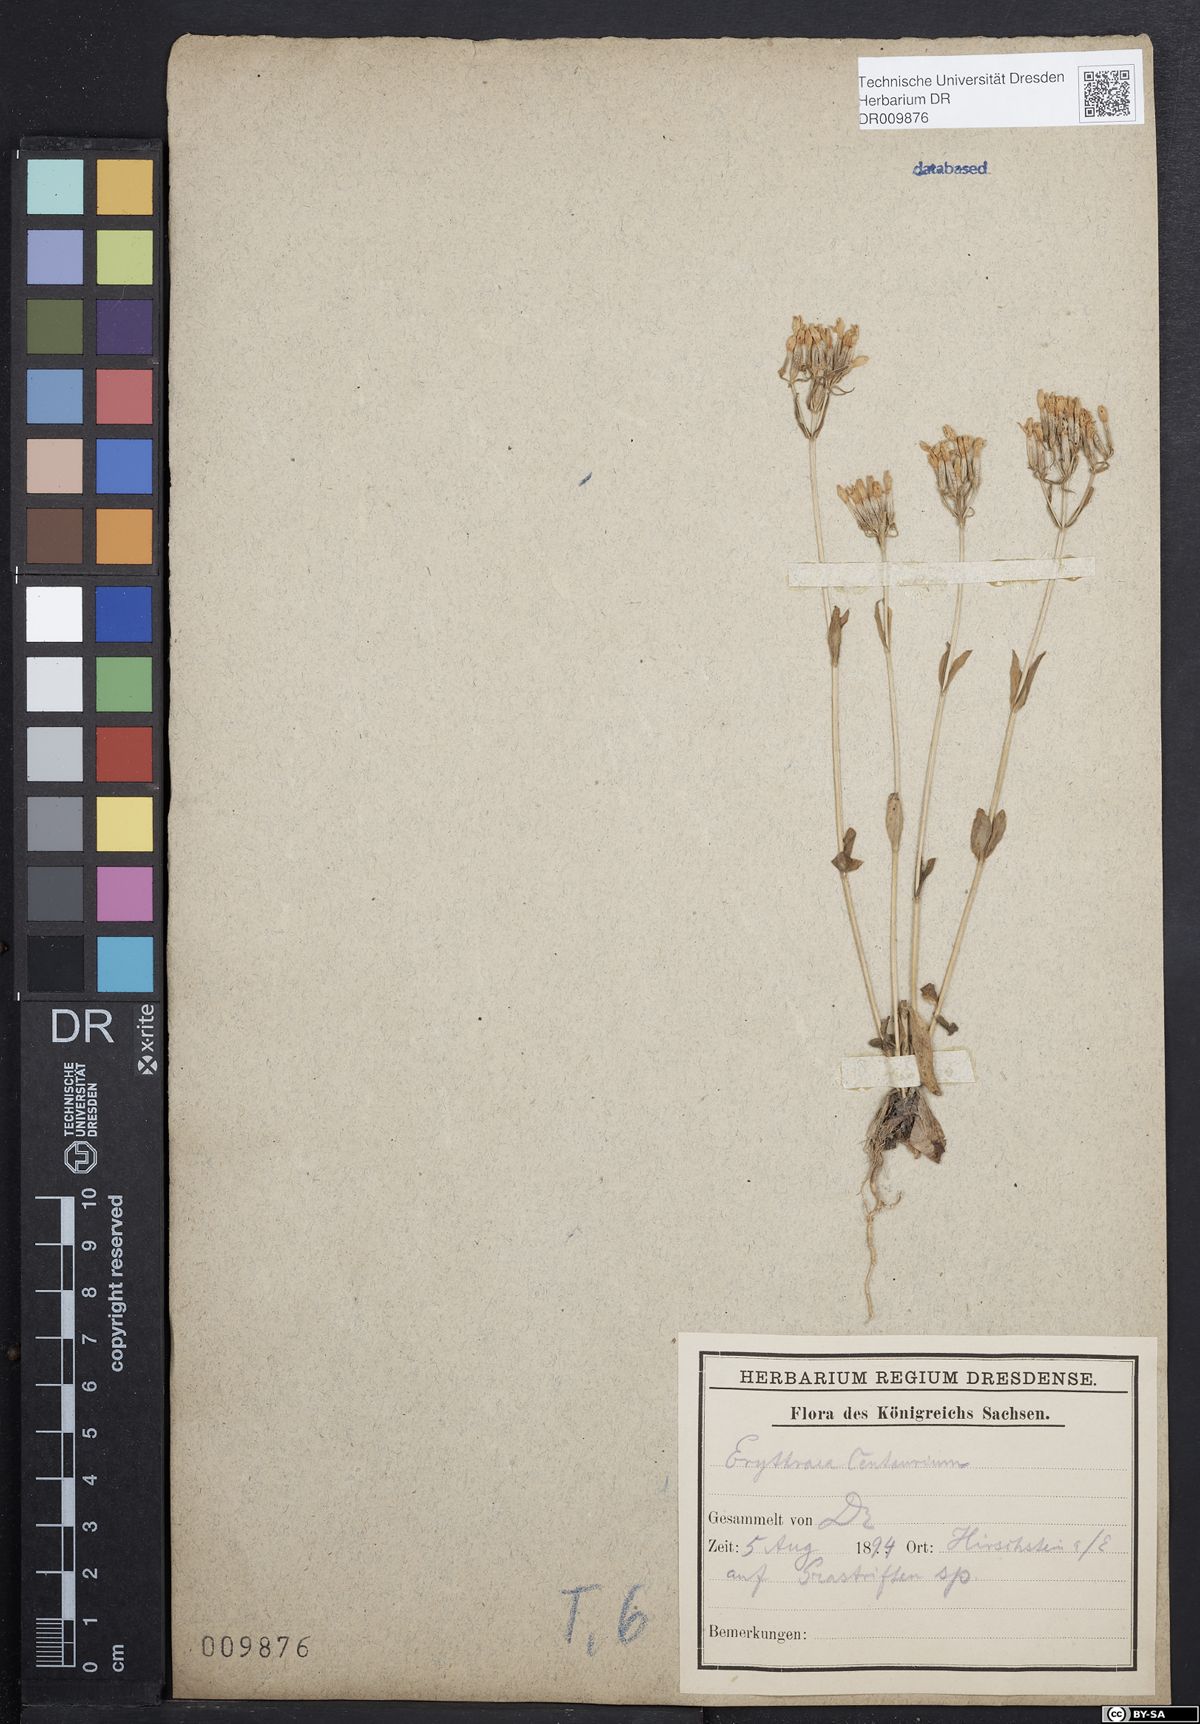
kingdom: Plantae
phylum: Tracheophyta
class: Magnoliopsida
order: Gentianales
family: Gentianaceae
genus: Centaurium
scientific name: Centaurium erythraea
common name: Common centaury
